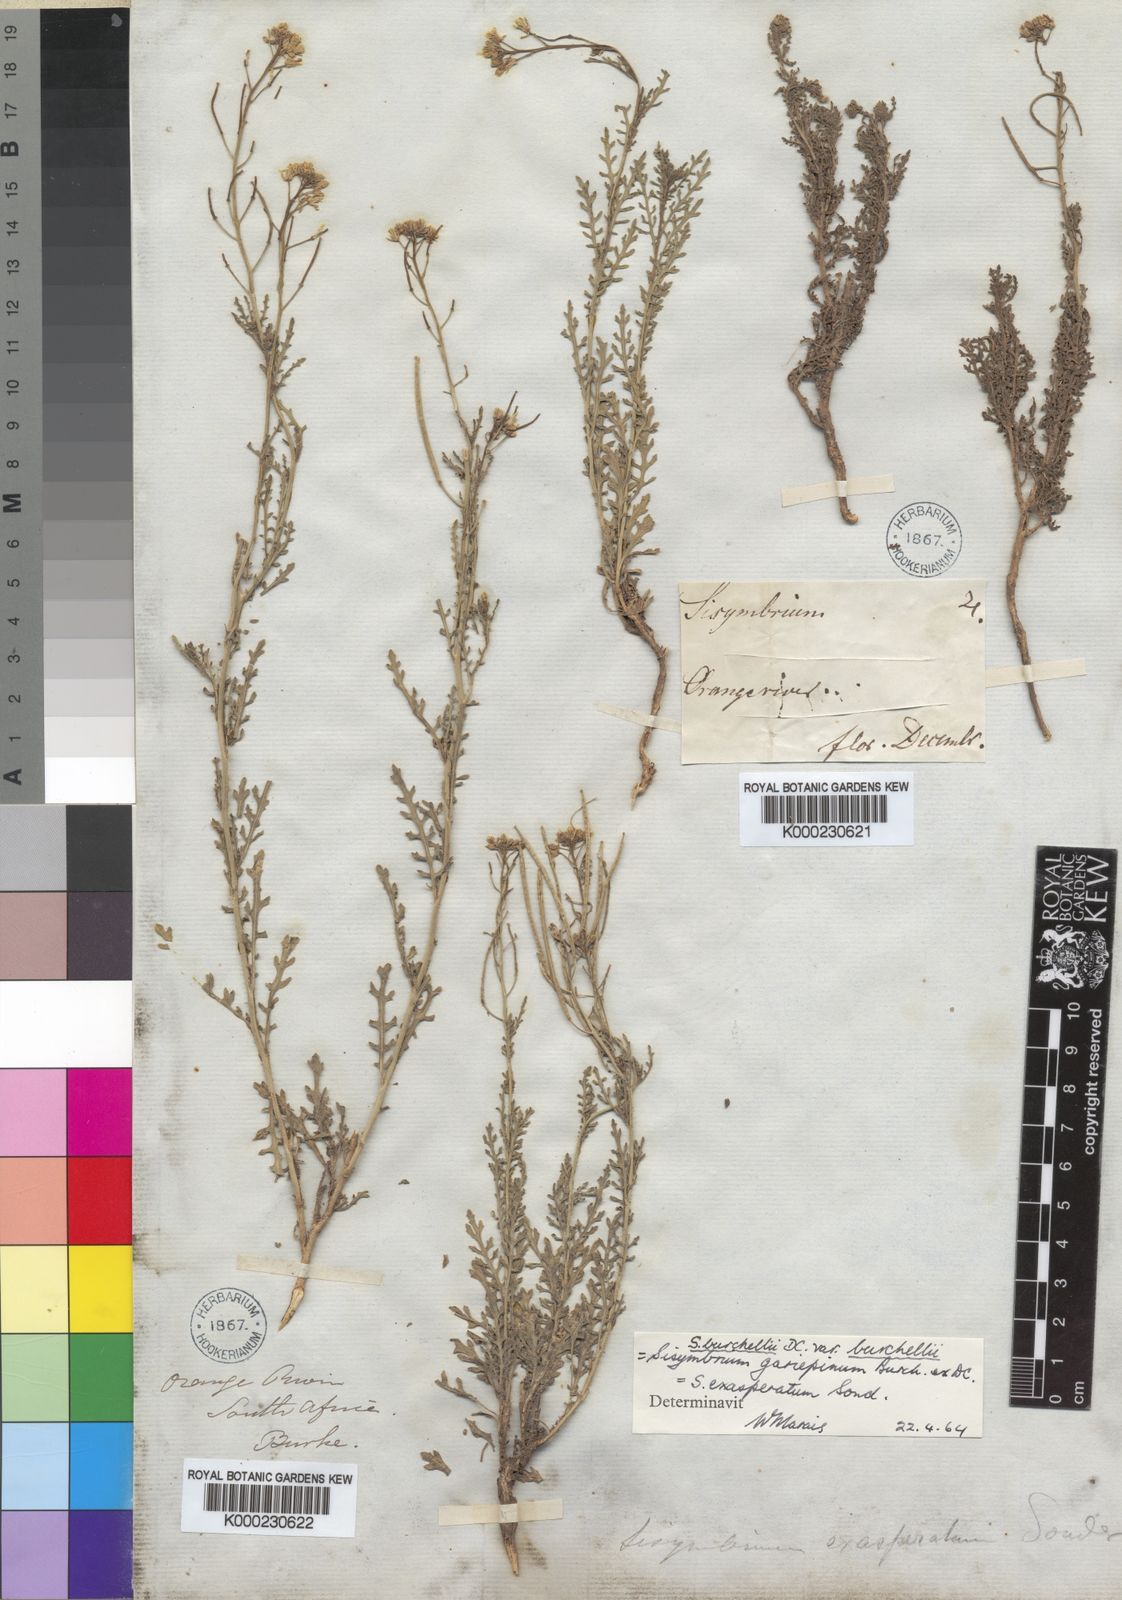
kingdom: Plantae
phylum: Tracheophyta
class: Magnoliopsida
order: Brassicales
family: Brassicaceae
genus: Sisymbrium
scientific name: Sisymbrium burchellii
